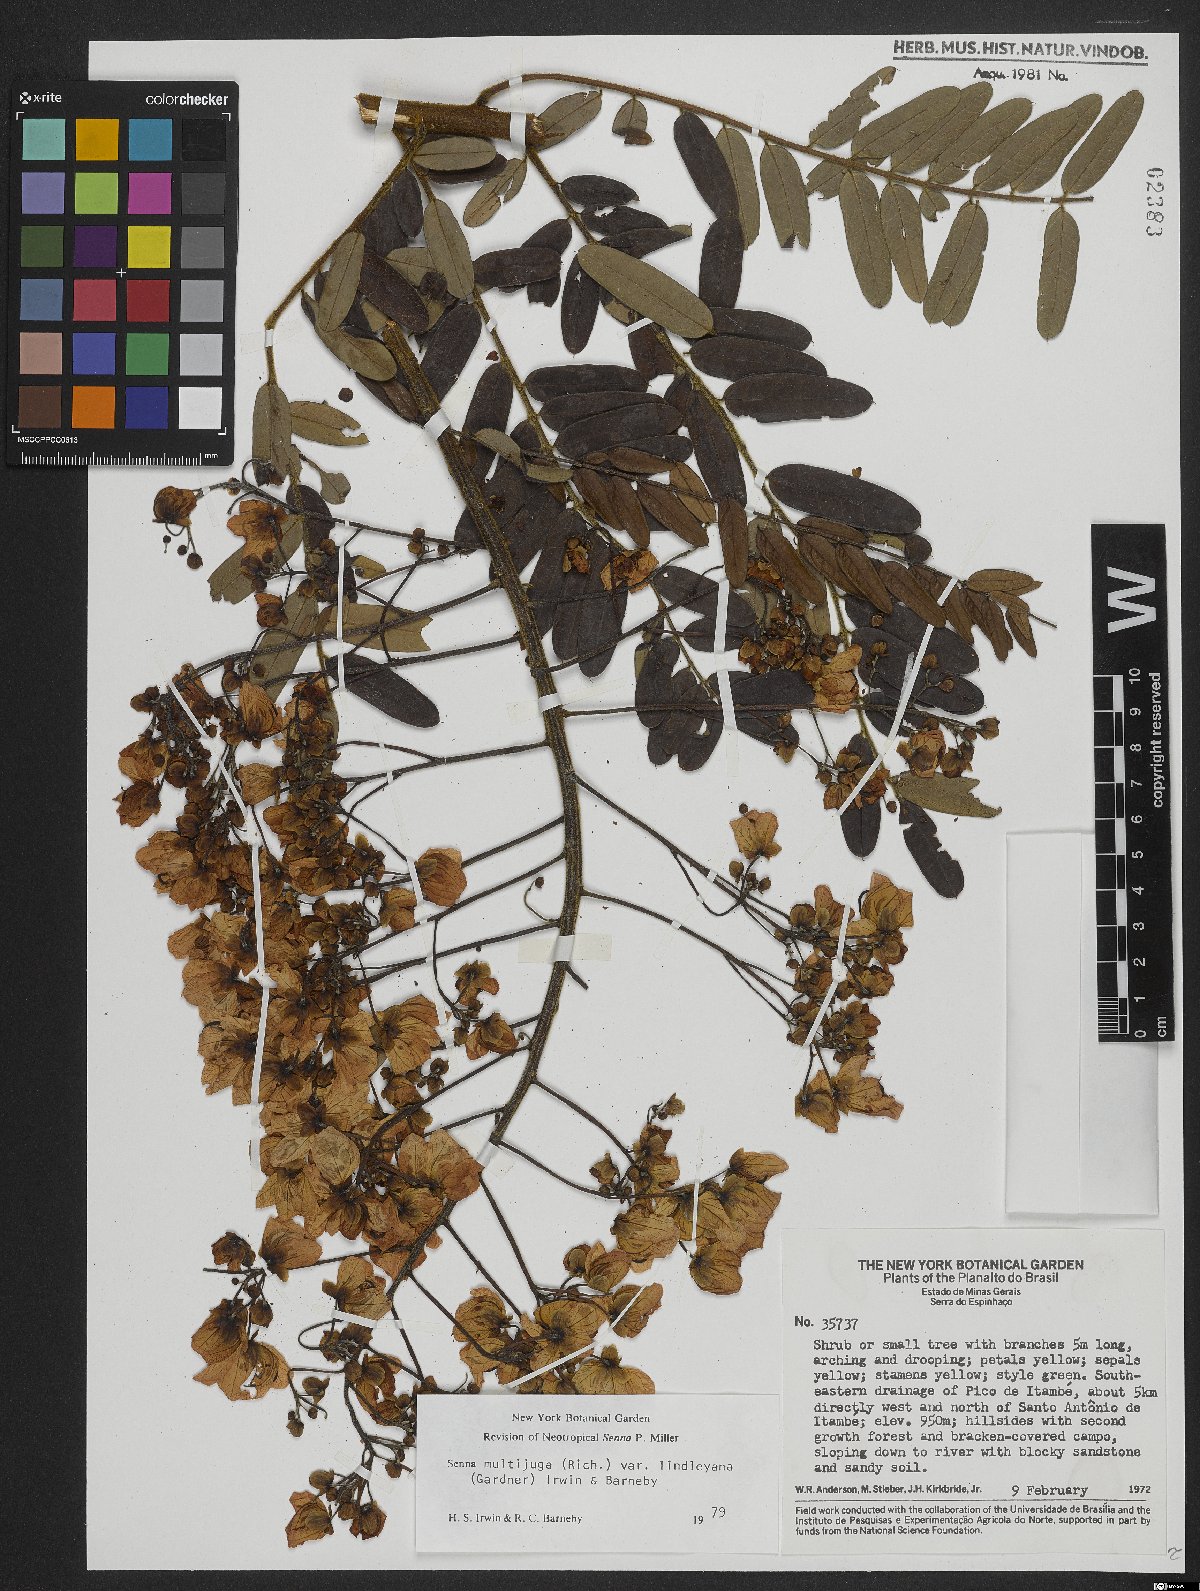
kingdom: Plantae
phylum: Tracheophyta
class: Magnoliopsida
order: Fabales
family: Fabaceae
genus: Senna
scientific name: Senna multijuga
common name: False sicklepod
